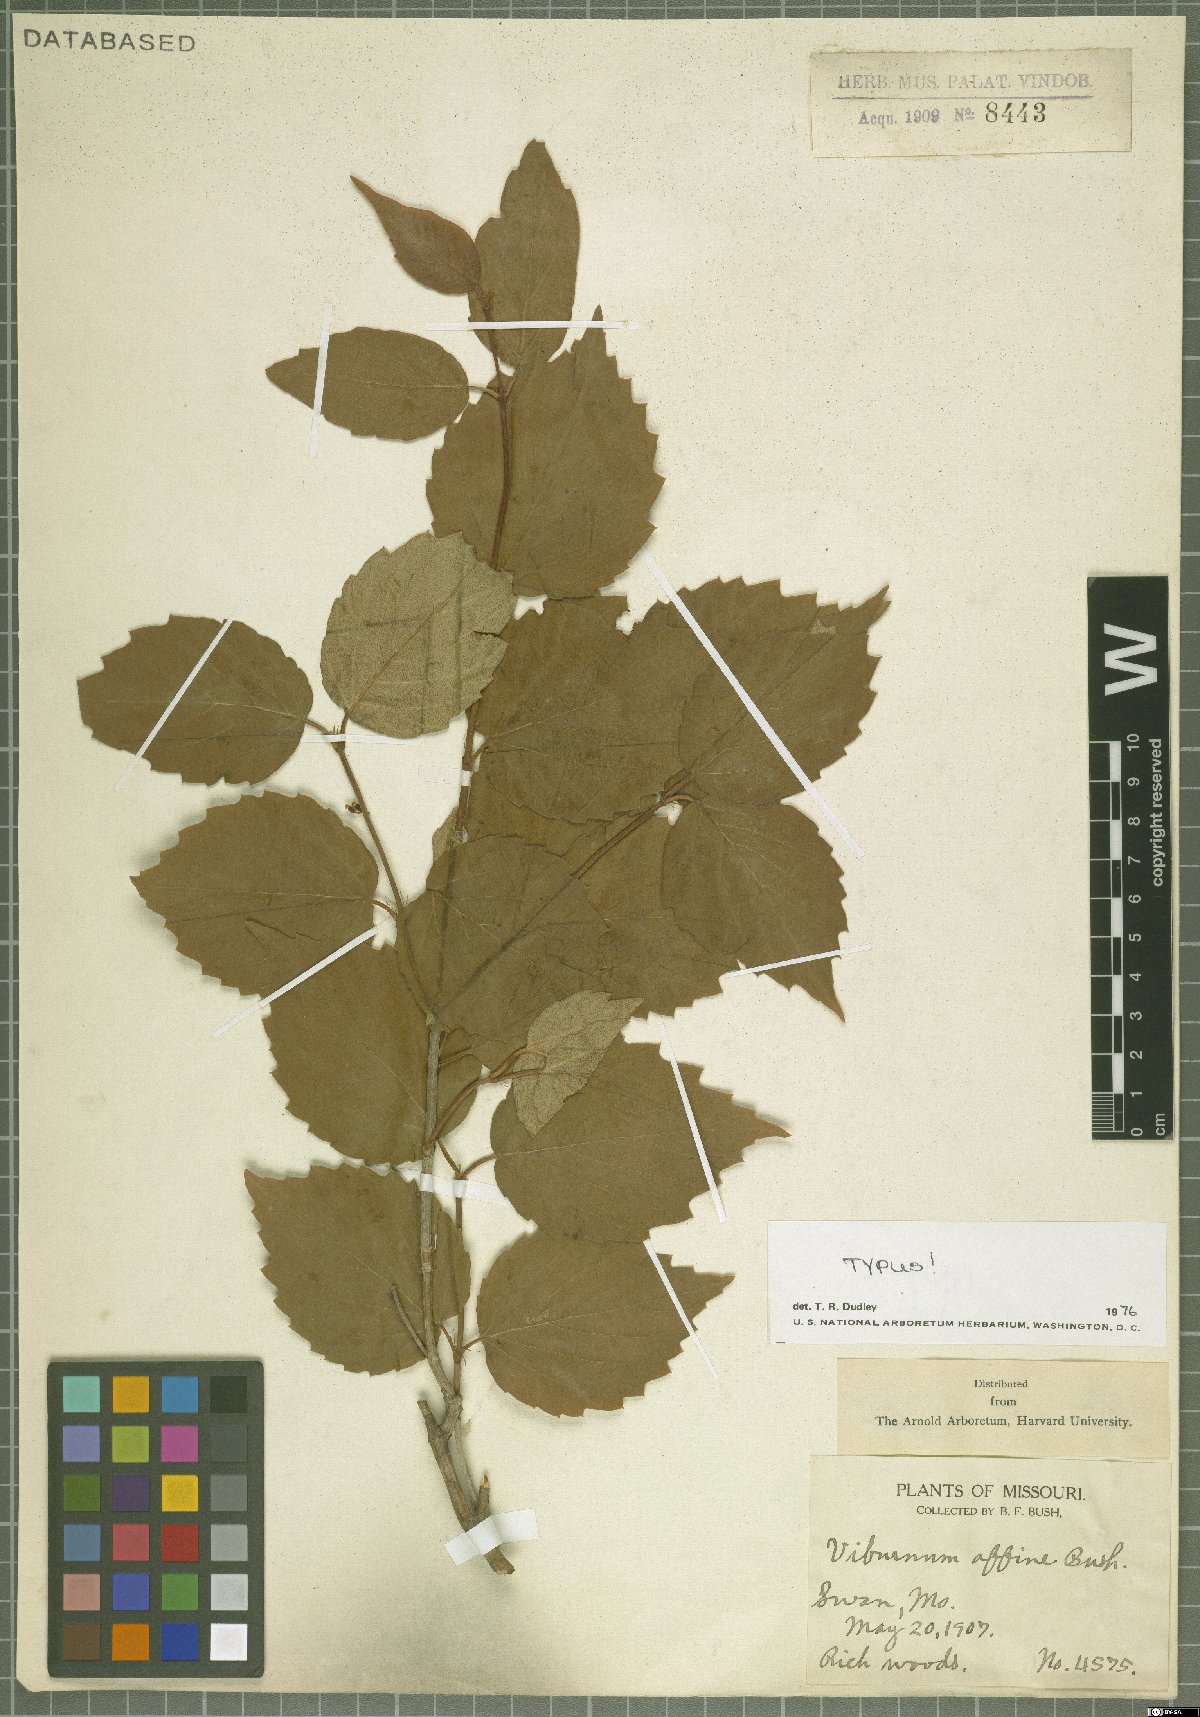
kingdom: Plantae
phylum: Tracheophyta
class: Magnoliopsida
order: Dipsacales
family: Viburnaceae
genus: Viburnum
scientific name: Viburnum rafinesqueanum
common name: Downy arrow-wood
